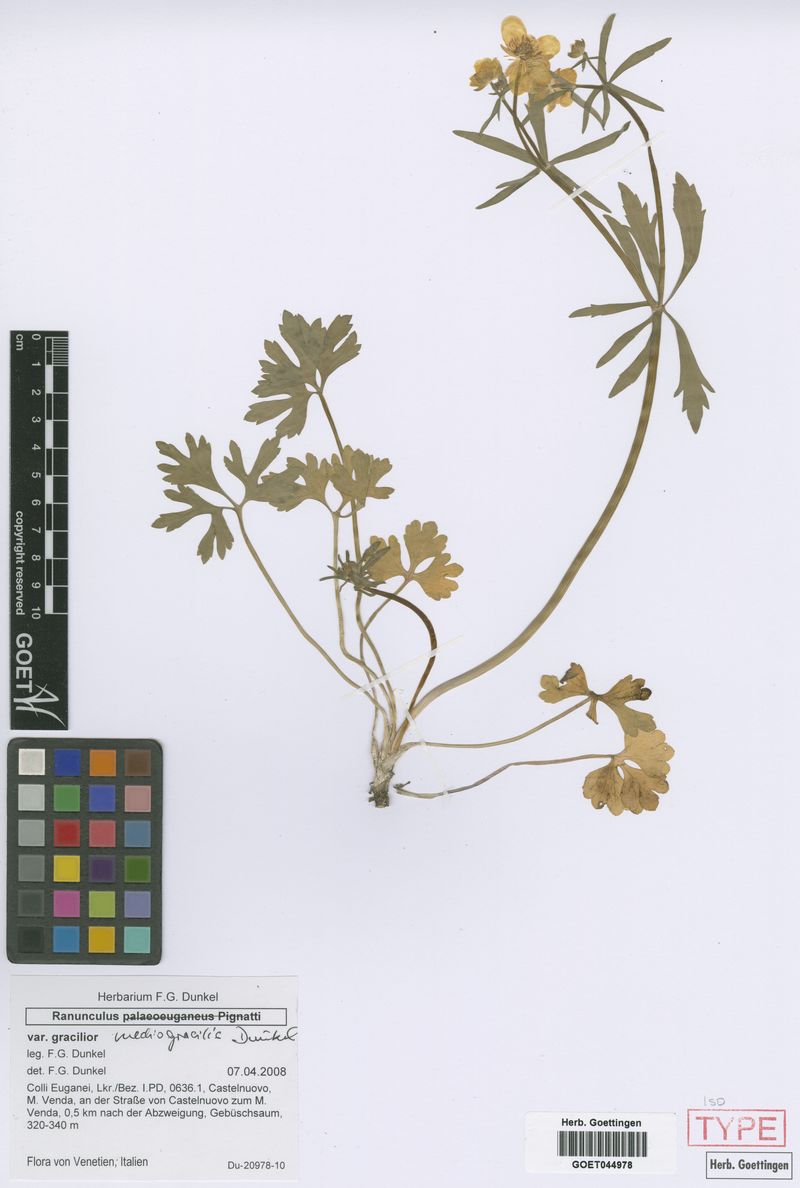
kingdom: Plantae
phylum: Tracheophyta
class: Magnoliopsida
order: Ranunculales
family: Ranunculaceae
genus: Ranunculus
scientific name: Ranunculus mediogracilis
